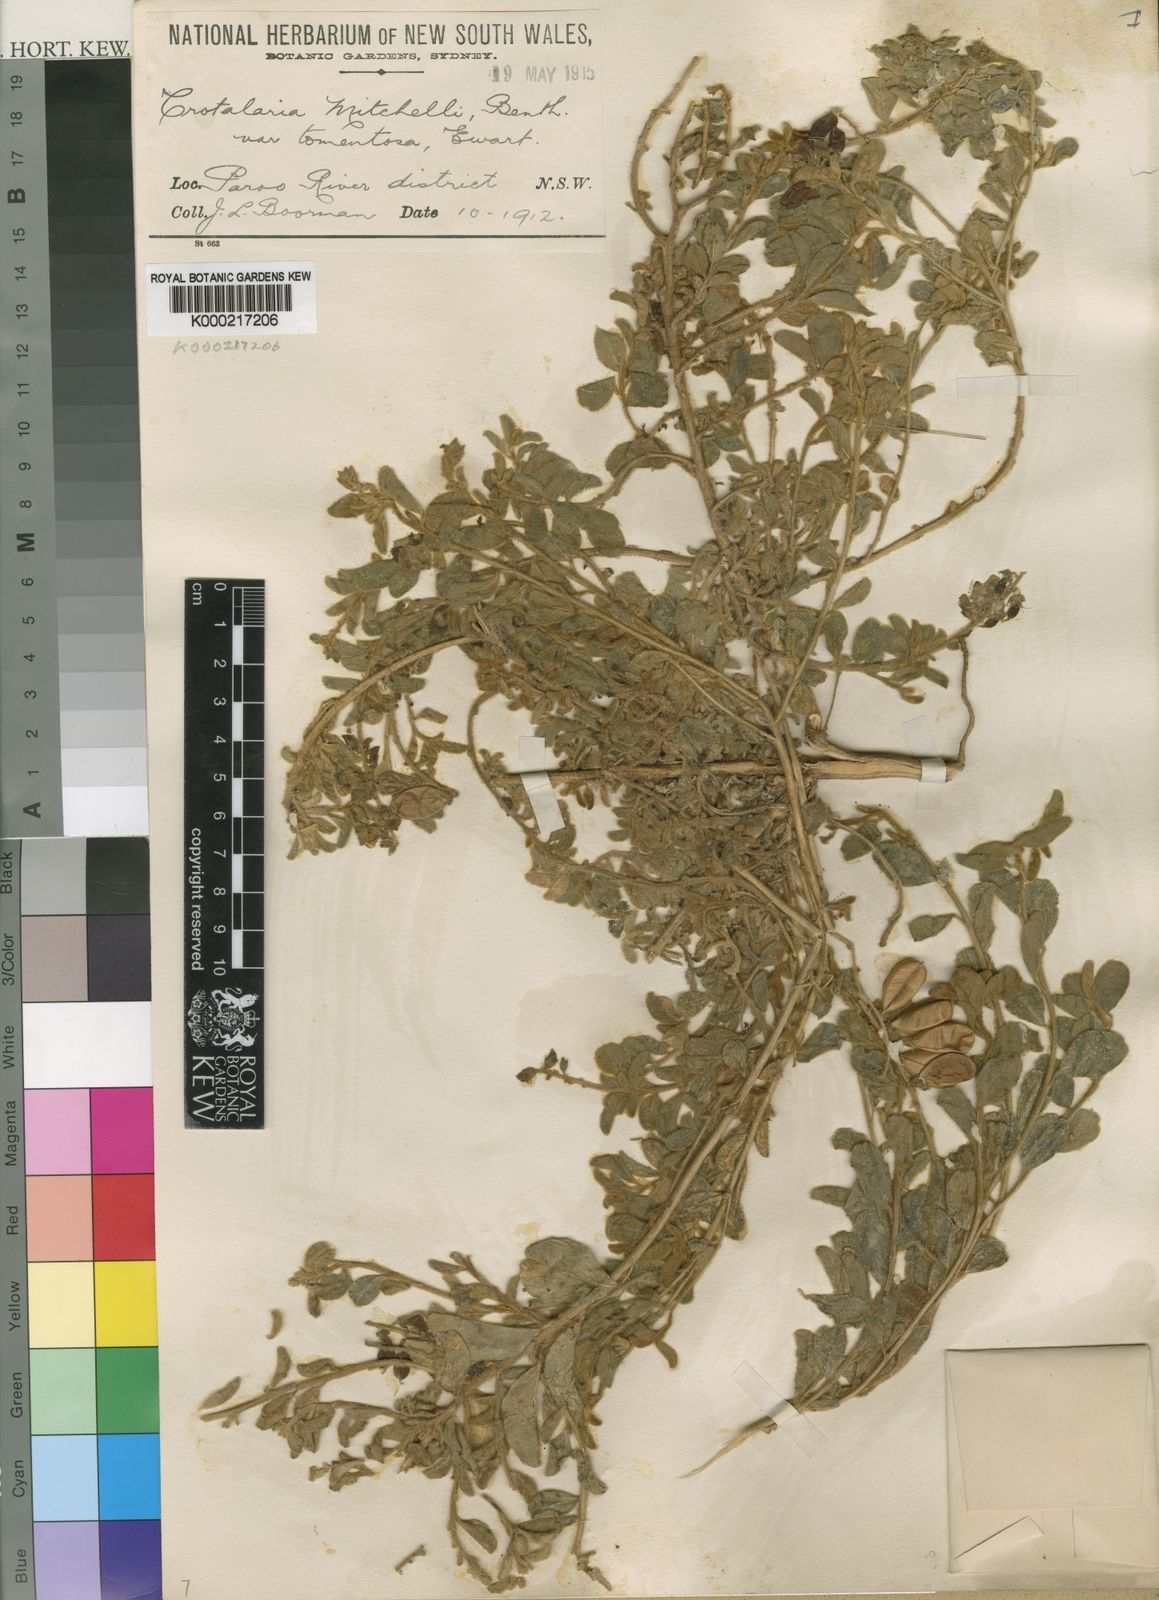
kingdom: Plantae
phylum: Tracheophyta
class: Magnoliopsida
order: Fabales
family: Fabaceae
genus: Crotalaria
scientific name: Crotalaria smithiana
